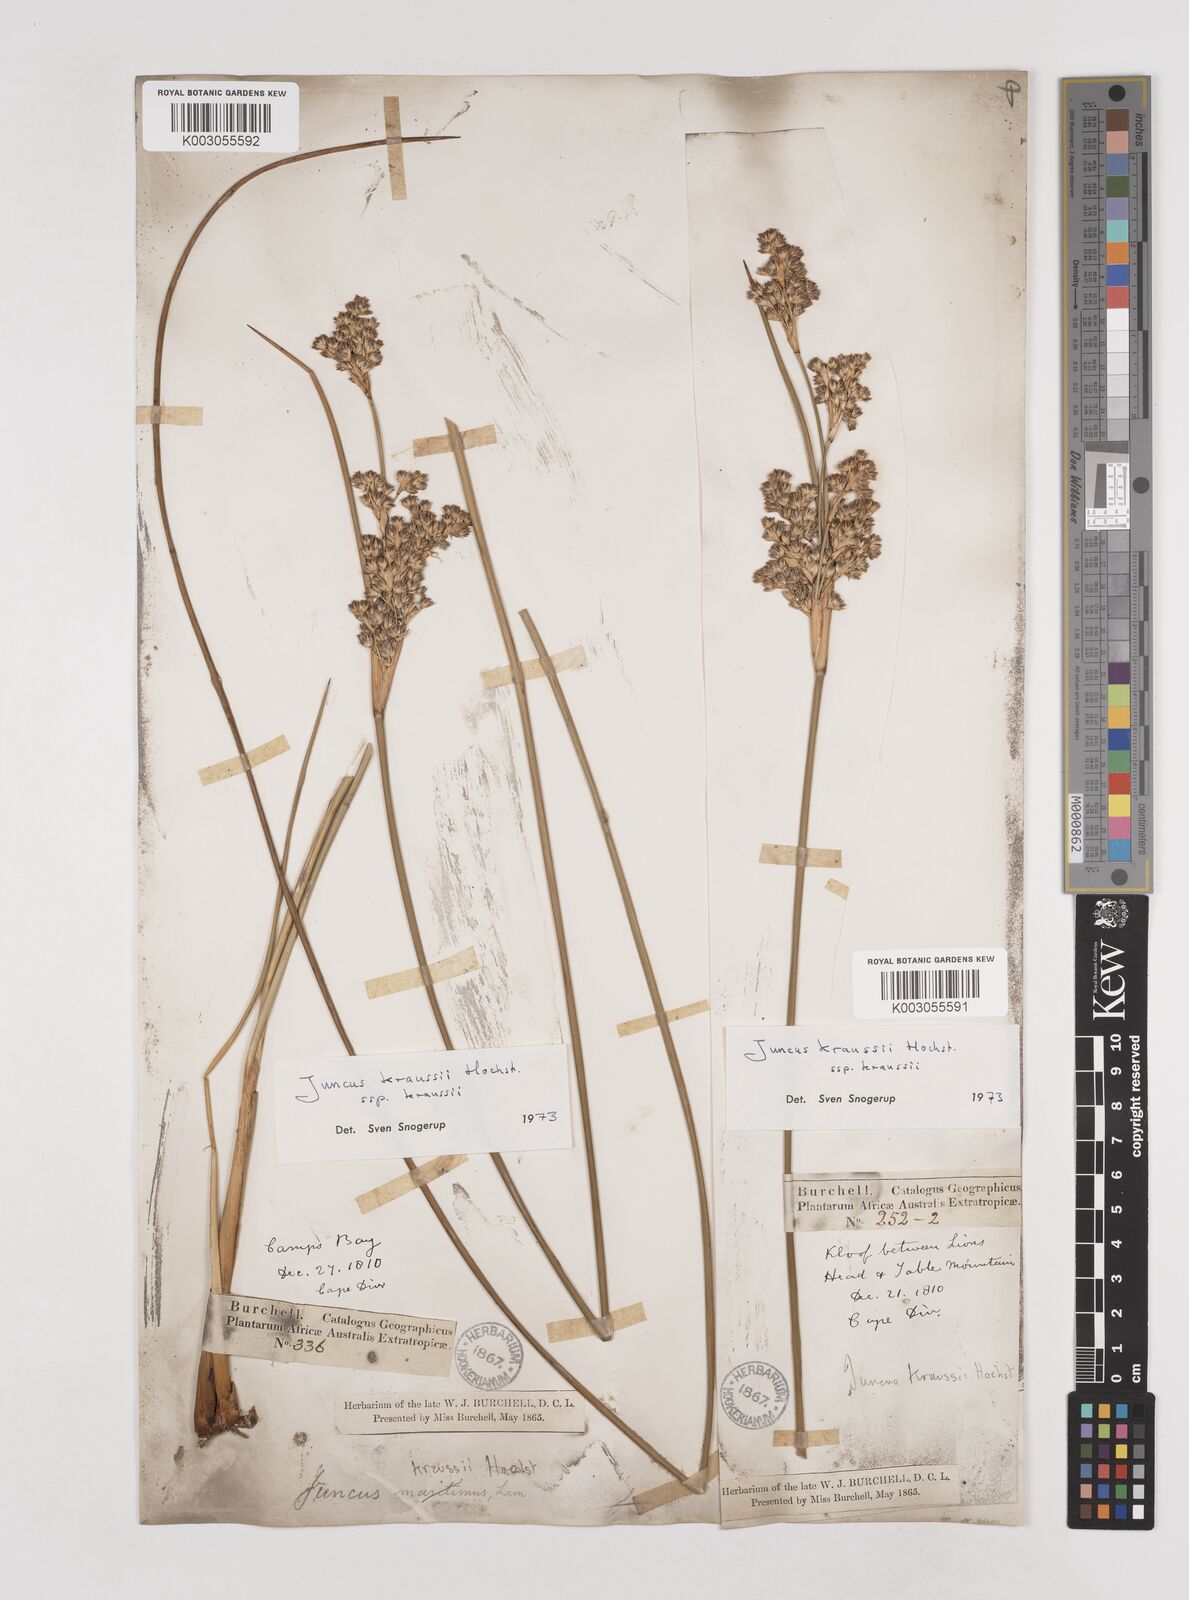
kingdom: Plantae
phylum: Tracheophyta
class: Liliopsida
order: Poales
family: Juncaceae
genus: Juncus
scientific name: Juncus kraussii
